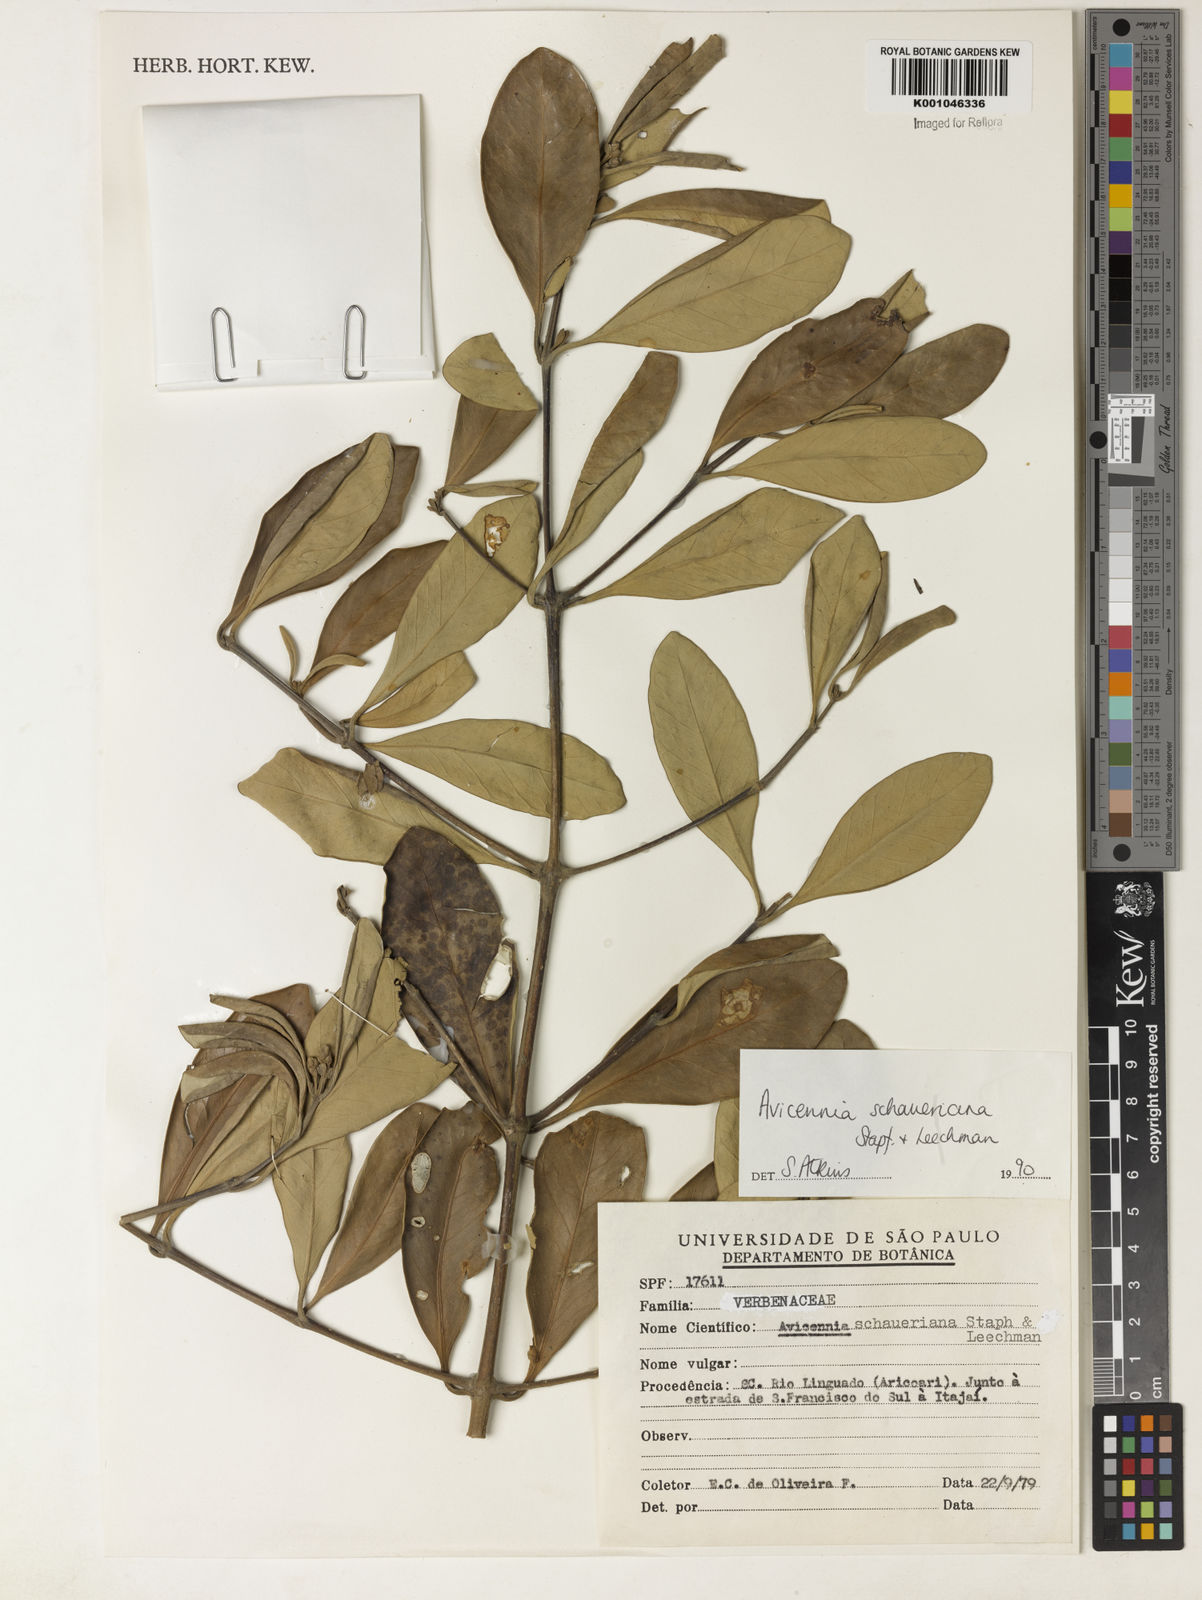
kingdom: Plantae
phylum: Tracheophyta
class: Magnoliopsida
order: Lamiales
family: Acanthaceae
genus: Avicennia
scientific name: Avicennia schaueriana
